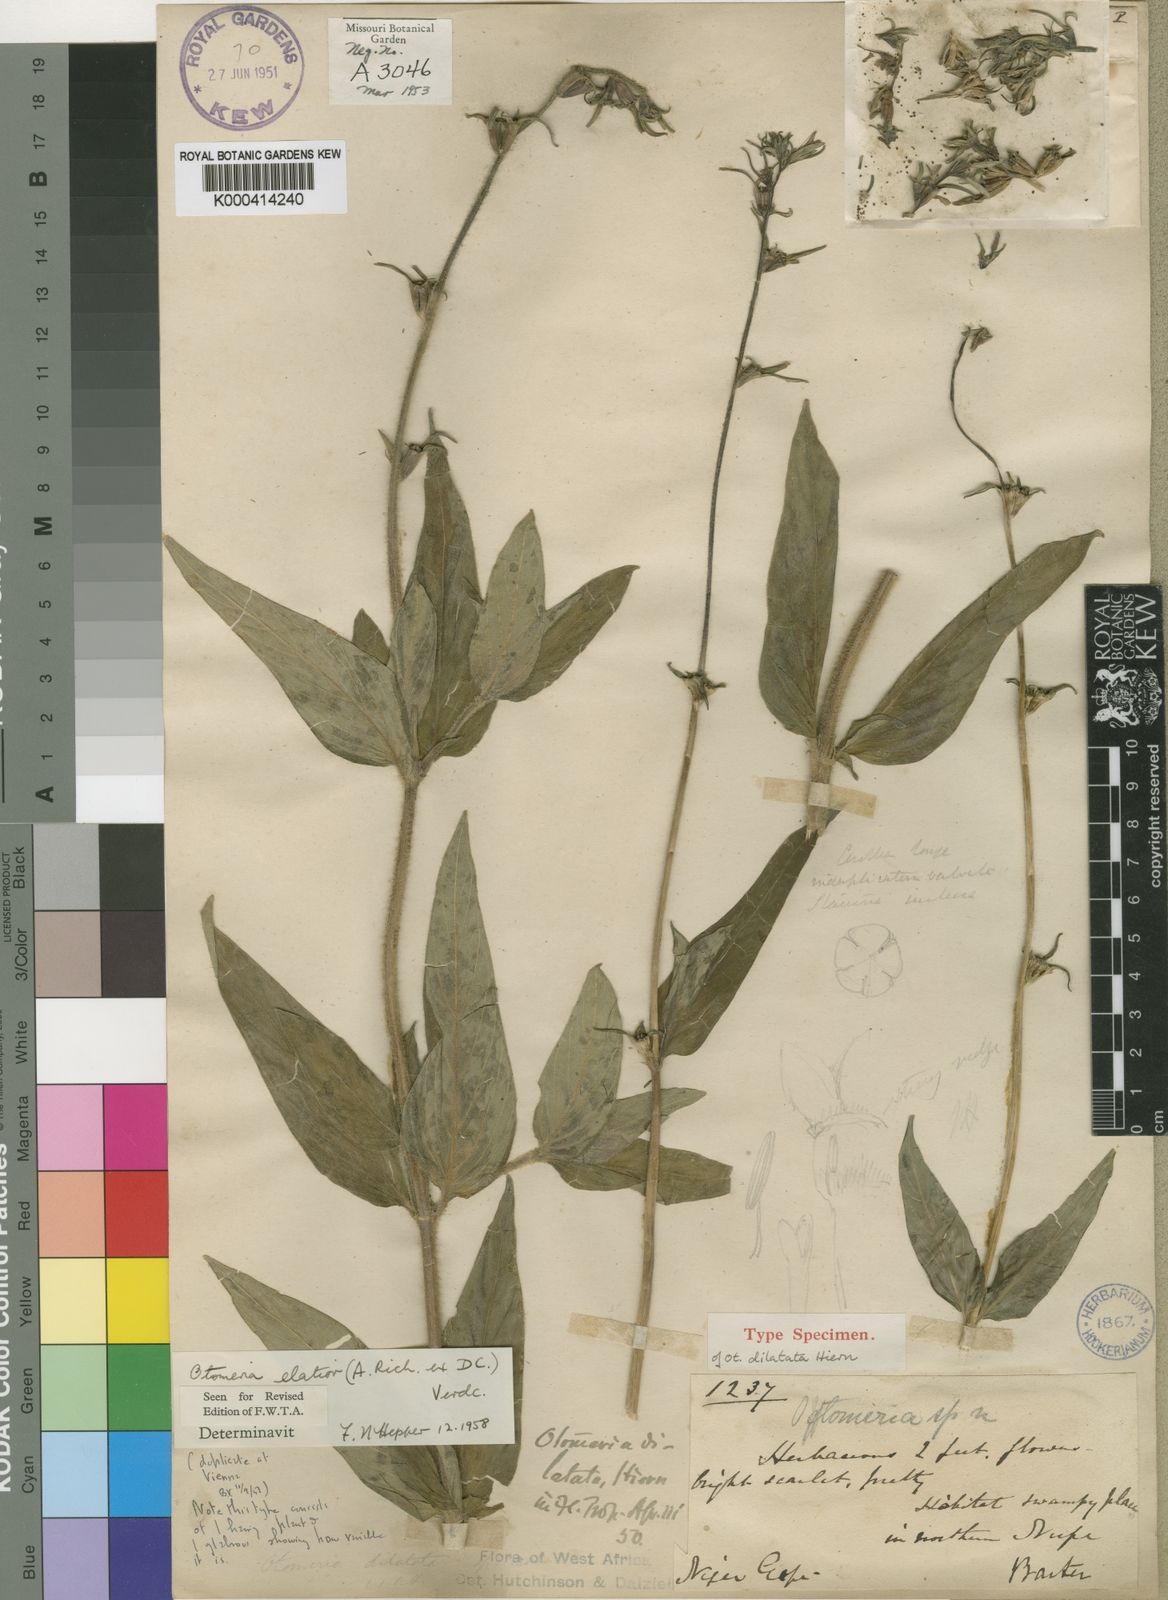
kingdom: Plantae
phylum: Tracheophyta
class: Magnoliopsida
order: Gentianales
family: Rubiaceae
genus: Otomeria
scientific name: Otomeria elatior
